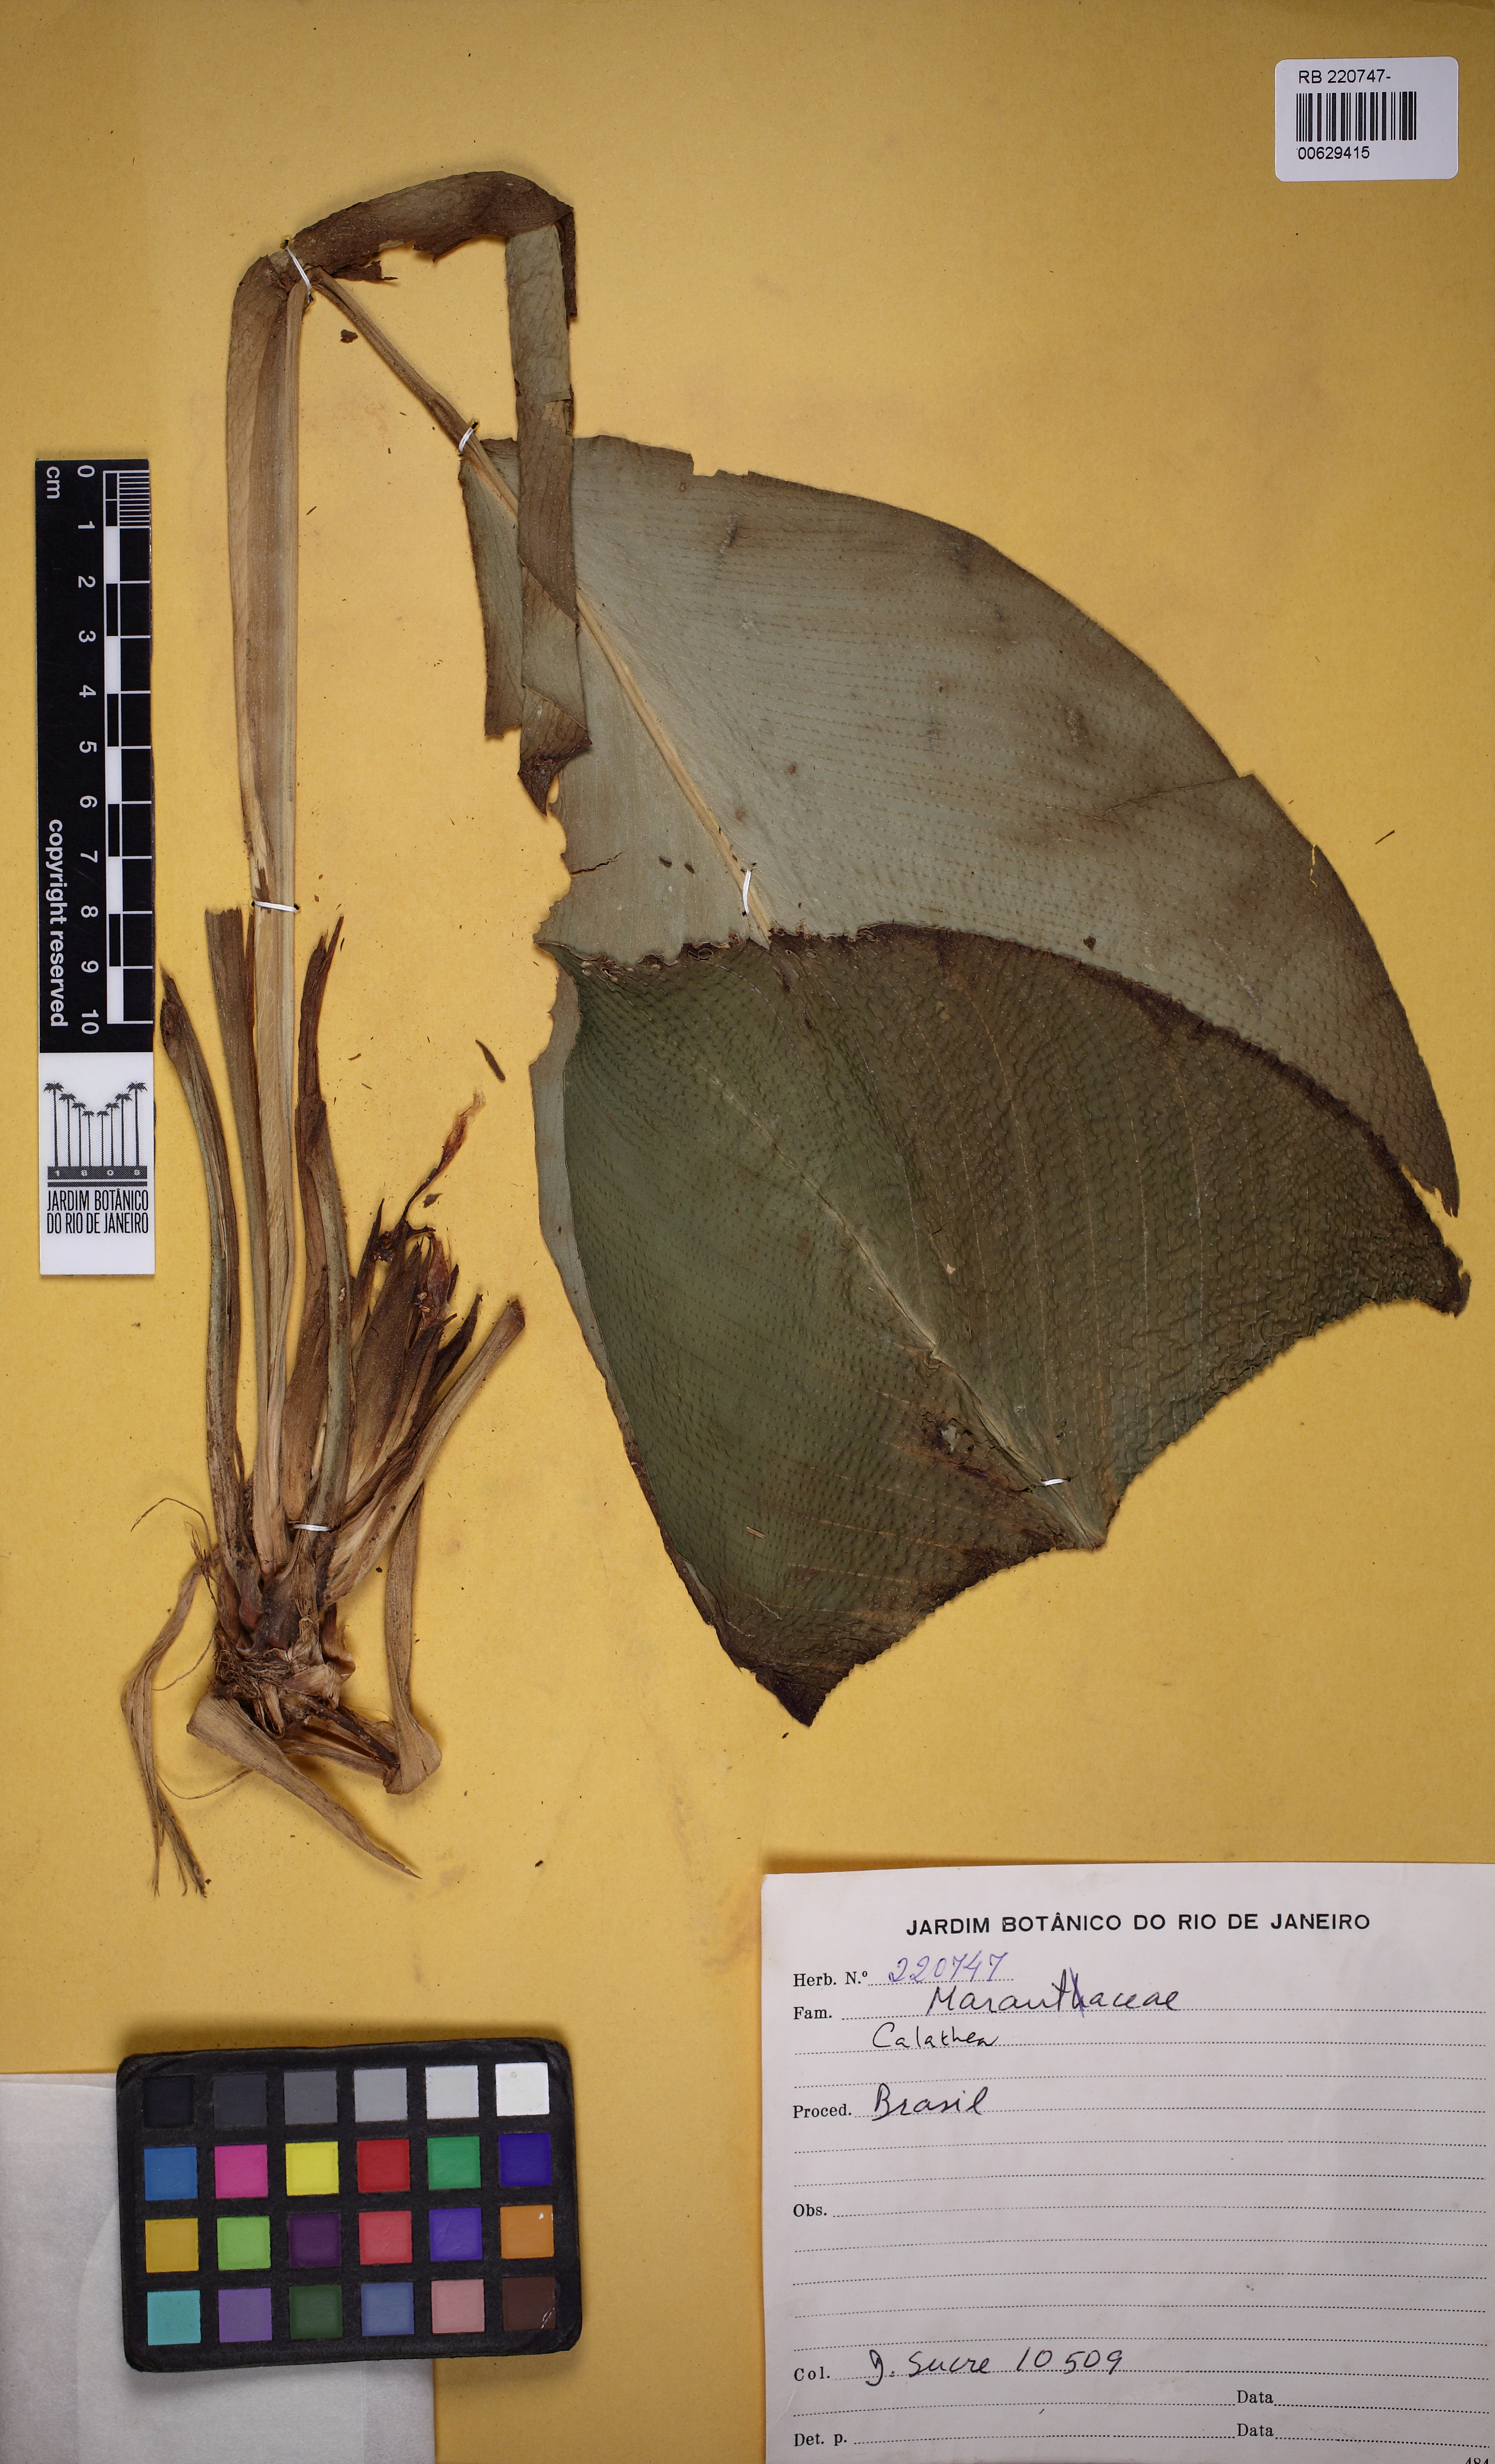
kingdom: Plantae
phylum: Tracheophyta
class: Liliopsida
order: Zingiberales
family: Marantaceae
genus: Calathea
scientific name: Calathea
